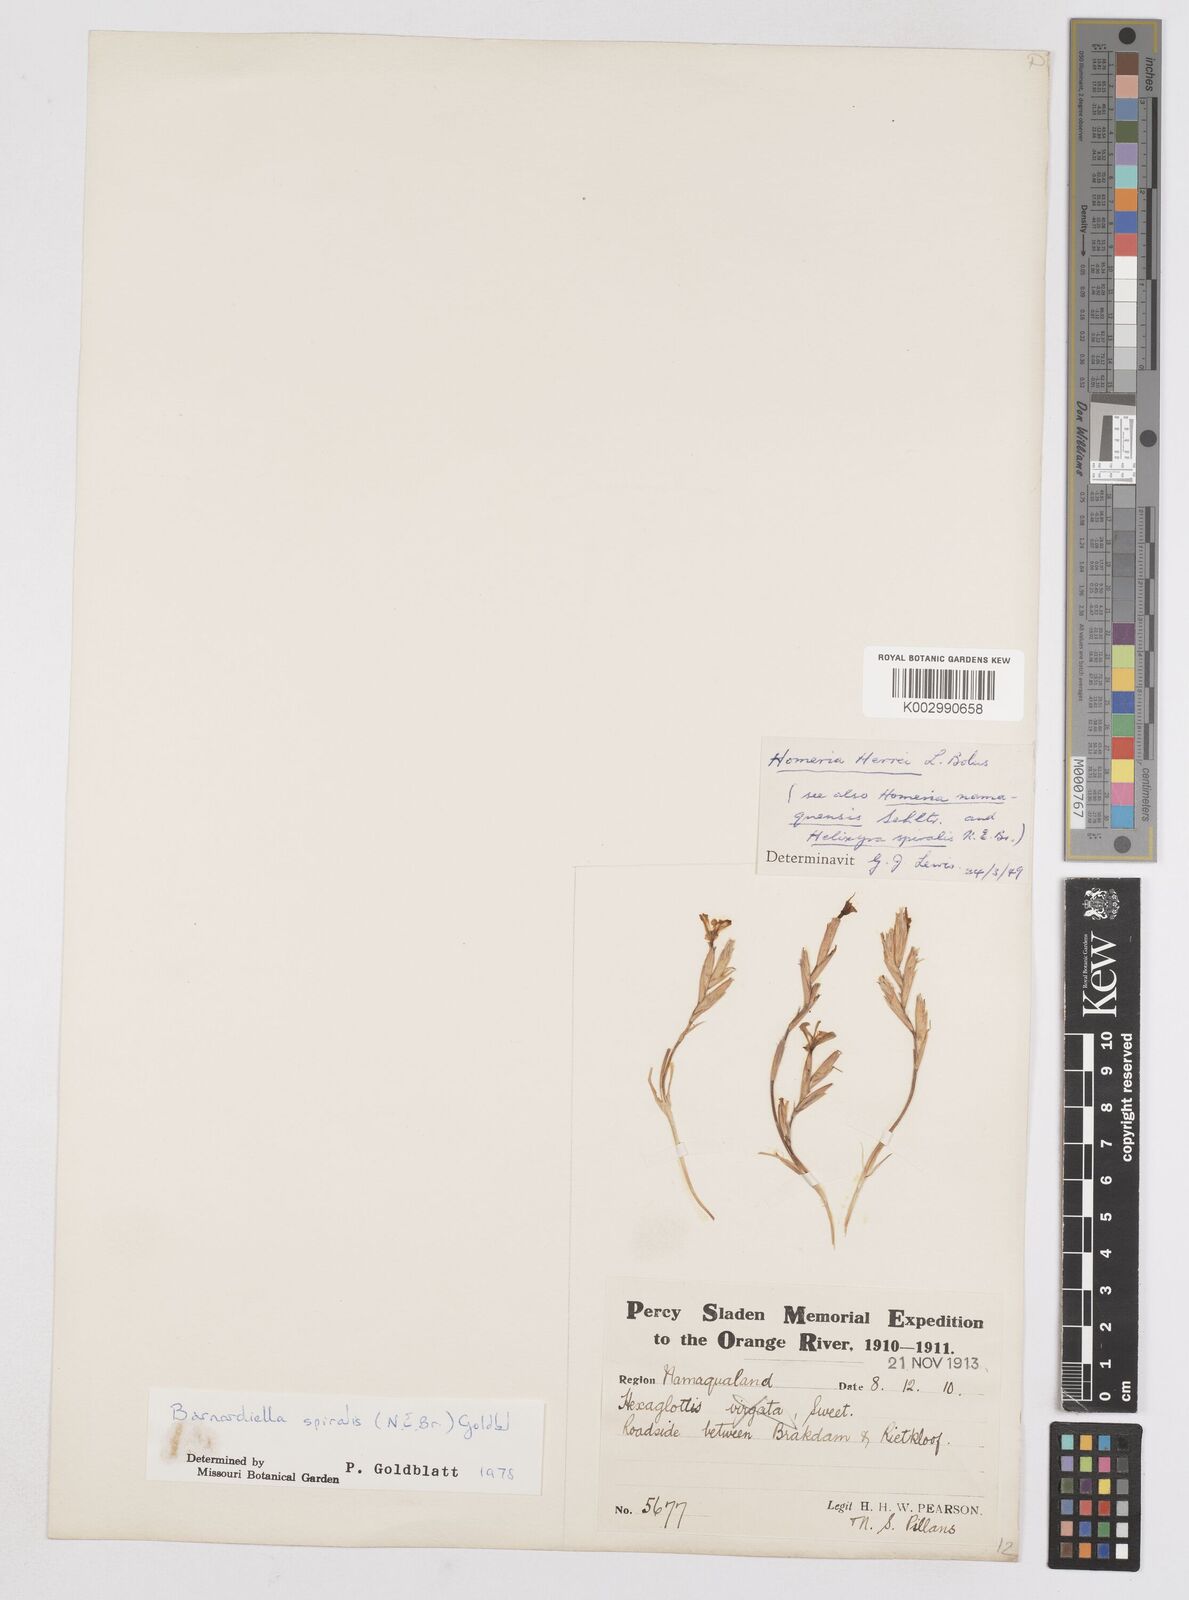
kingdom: Plantae
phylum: Tracheophyta
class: Liliopsida
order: Asparagales
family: Iridaceae
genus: Moraea
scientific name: Moraea herrei
